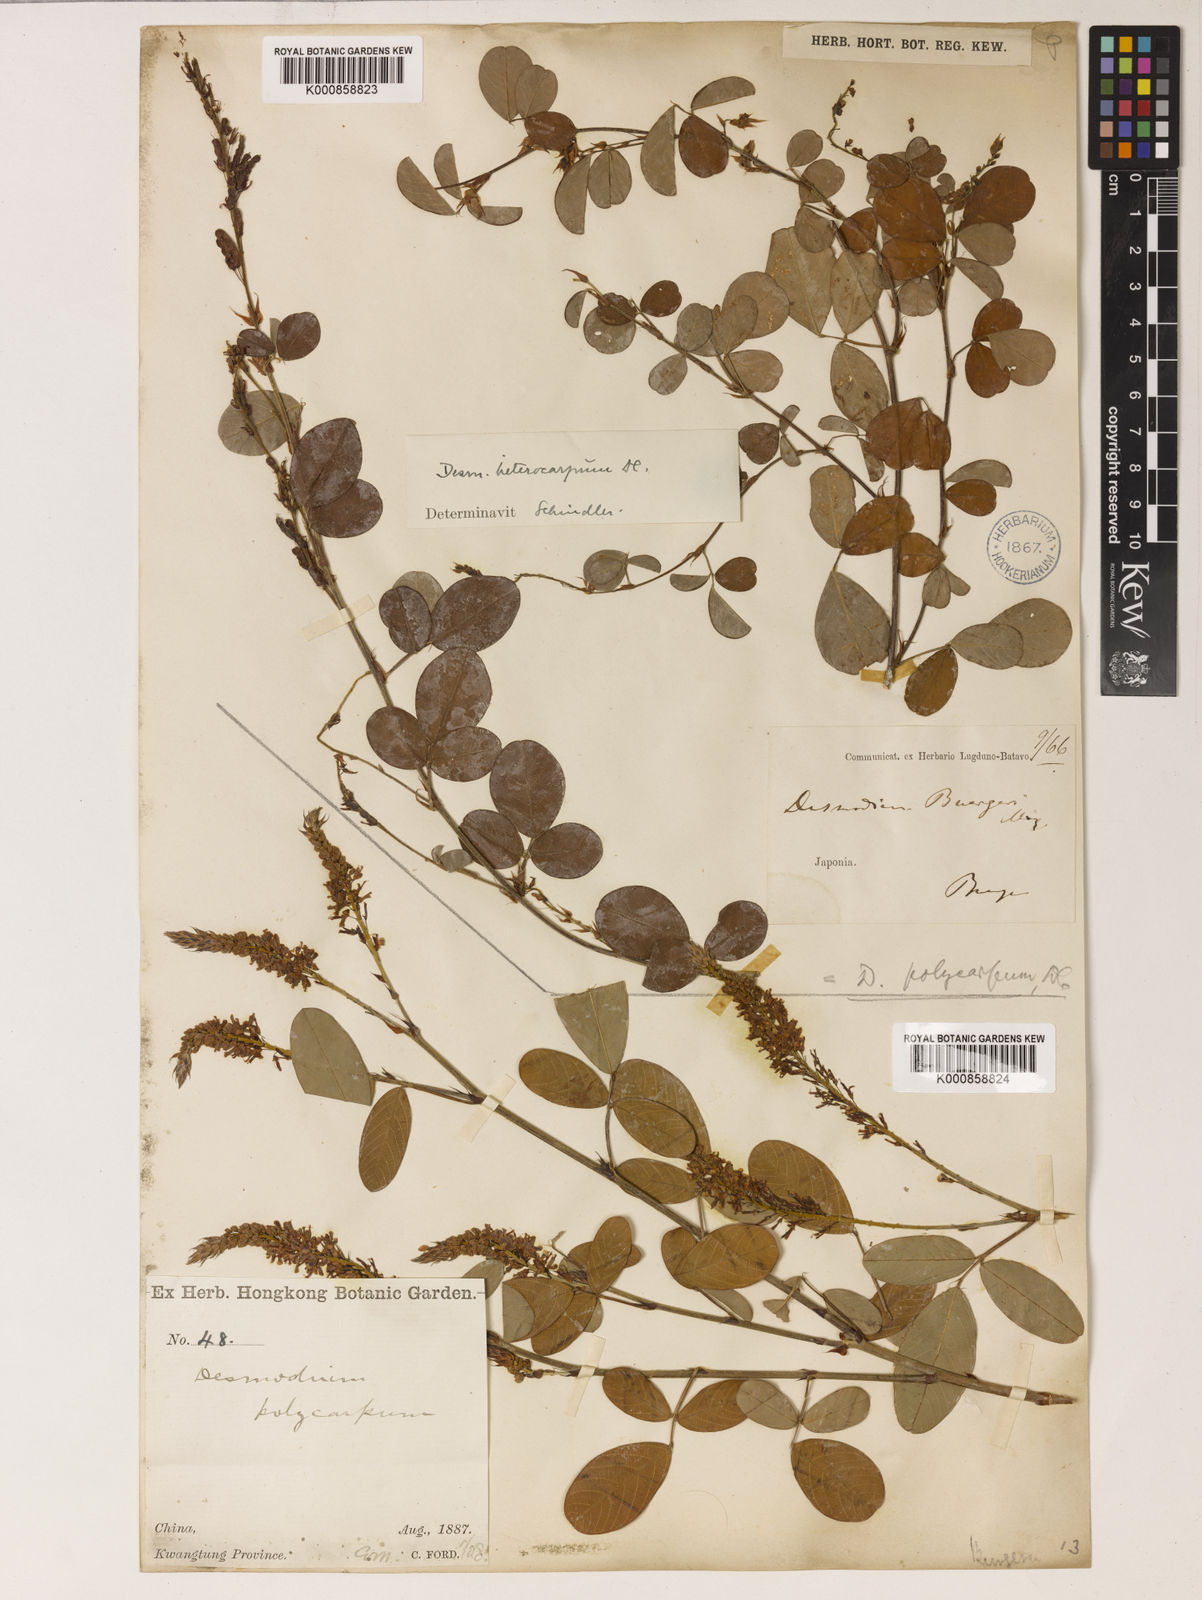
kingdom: Plantae
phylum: Tracheophyta
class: Magnoliopsida
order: Fabales
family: Fabaceae
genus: Grona
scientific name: Grona heterocarpos
